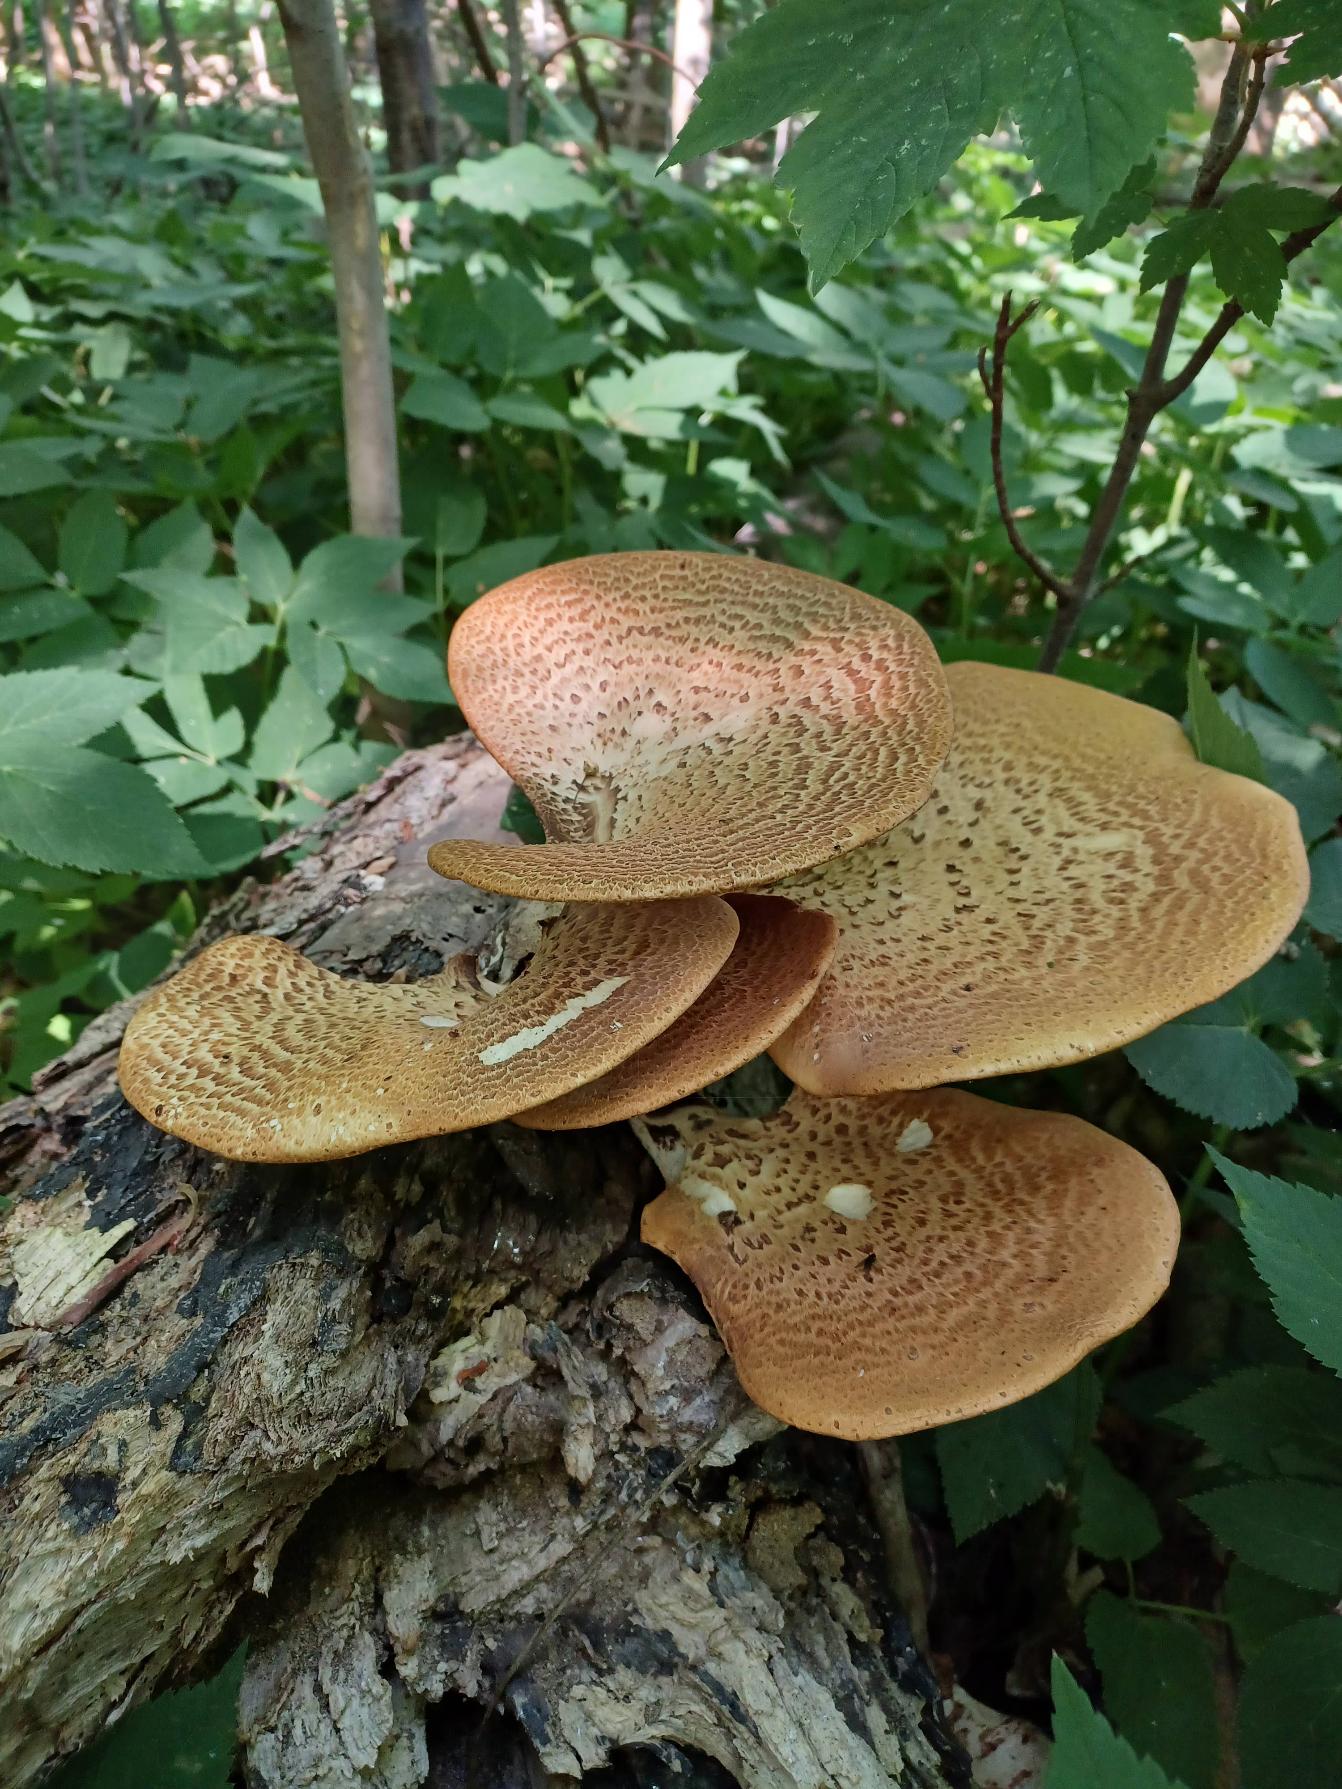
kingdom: Fungi
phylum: Basidiomycota
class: Agaricomycetes
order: Polyporales
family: Polyporaceae
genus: Cerioporus
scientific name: Cerioporus squamosus
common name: Skællet stilkporesvamp
